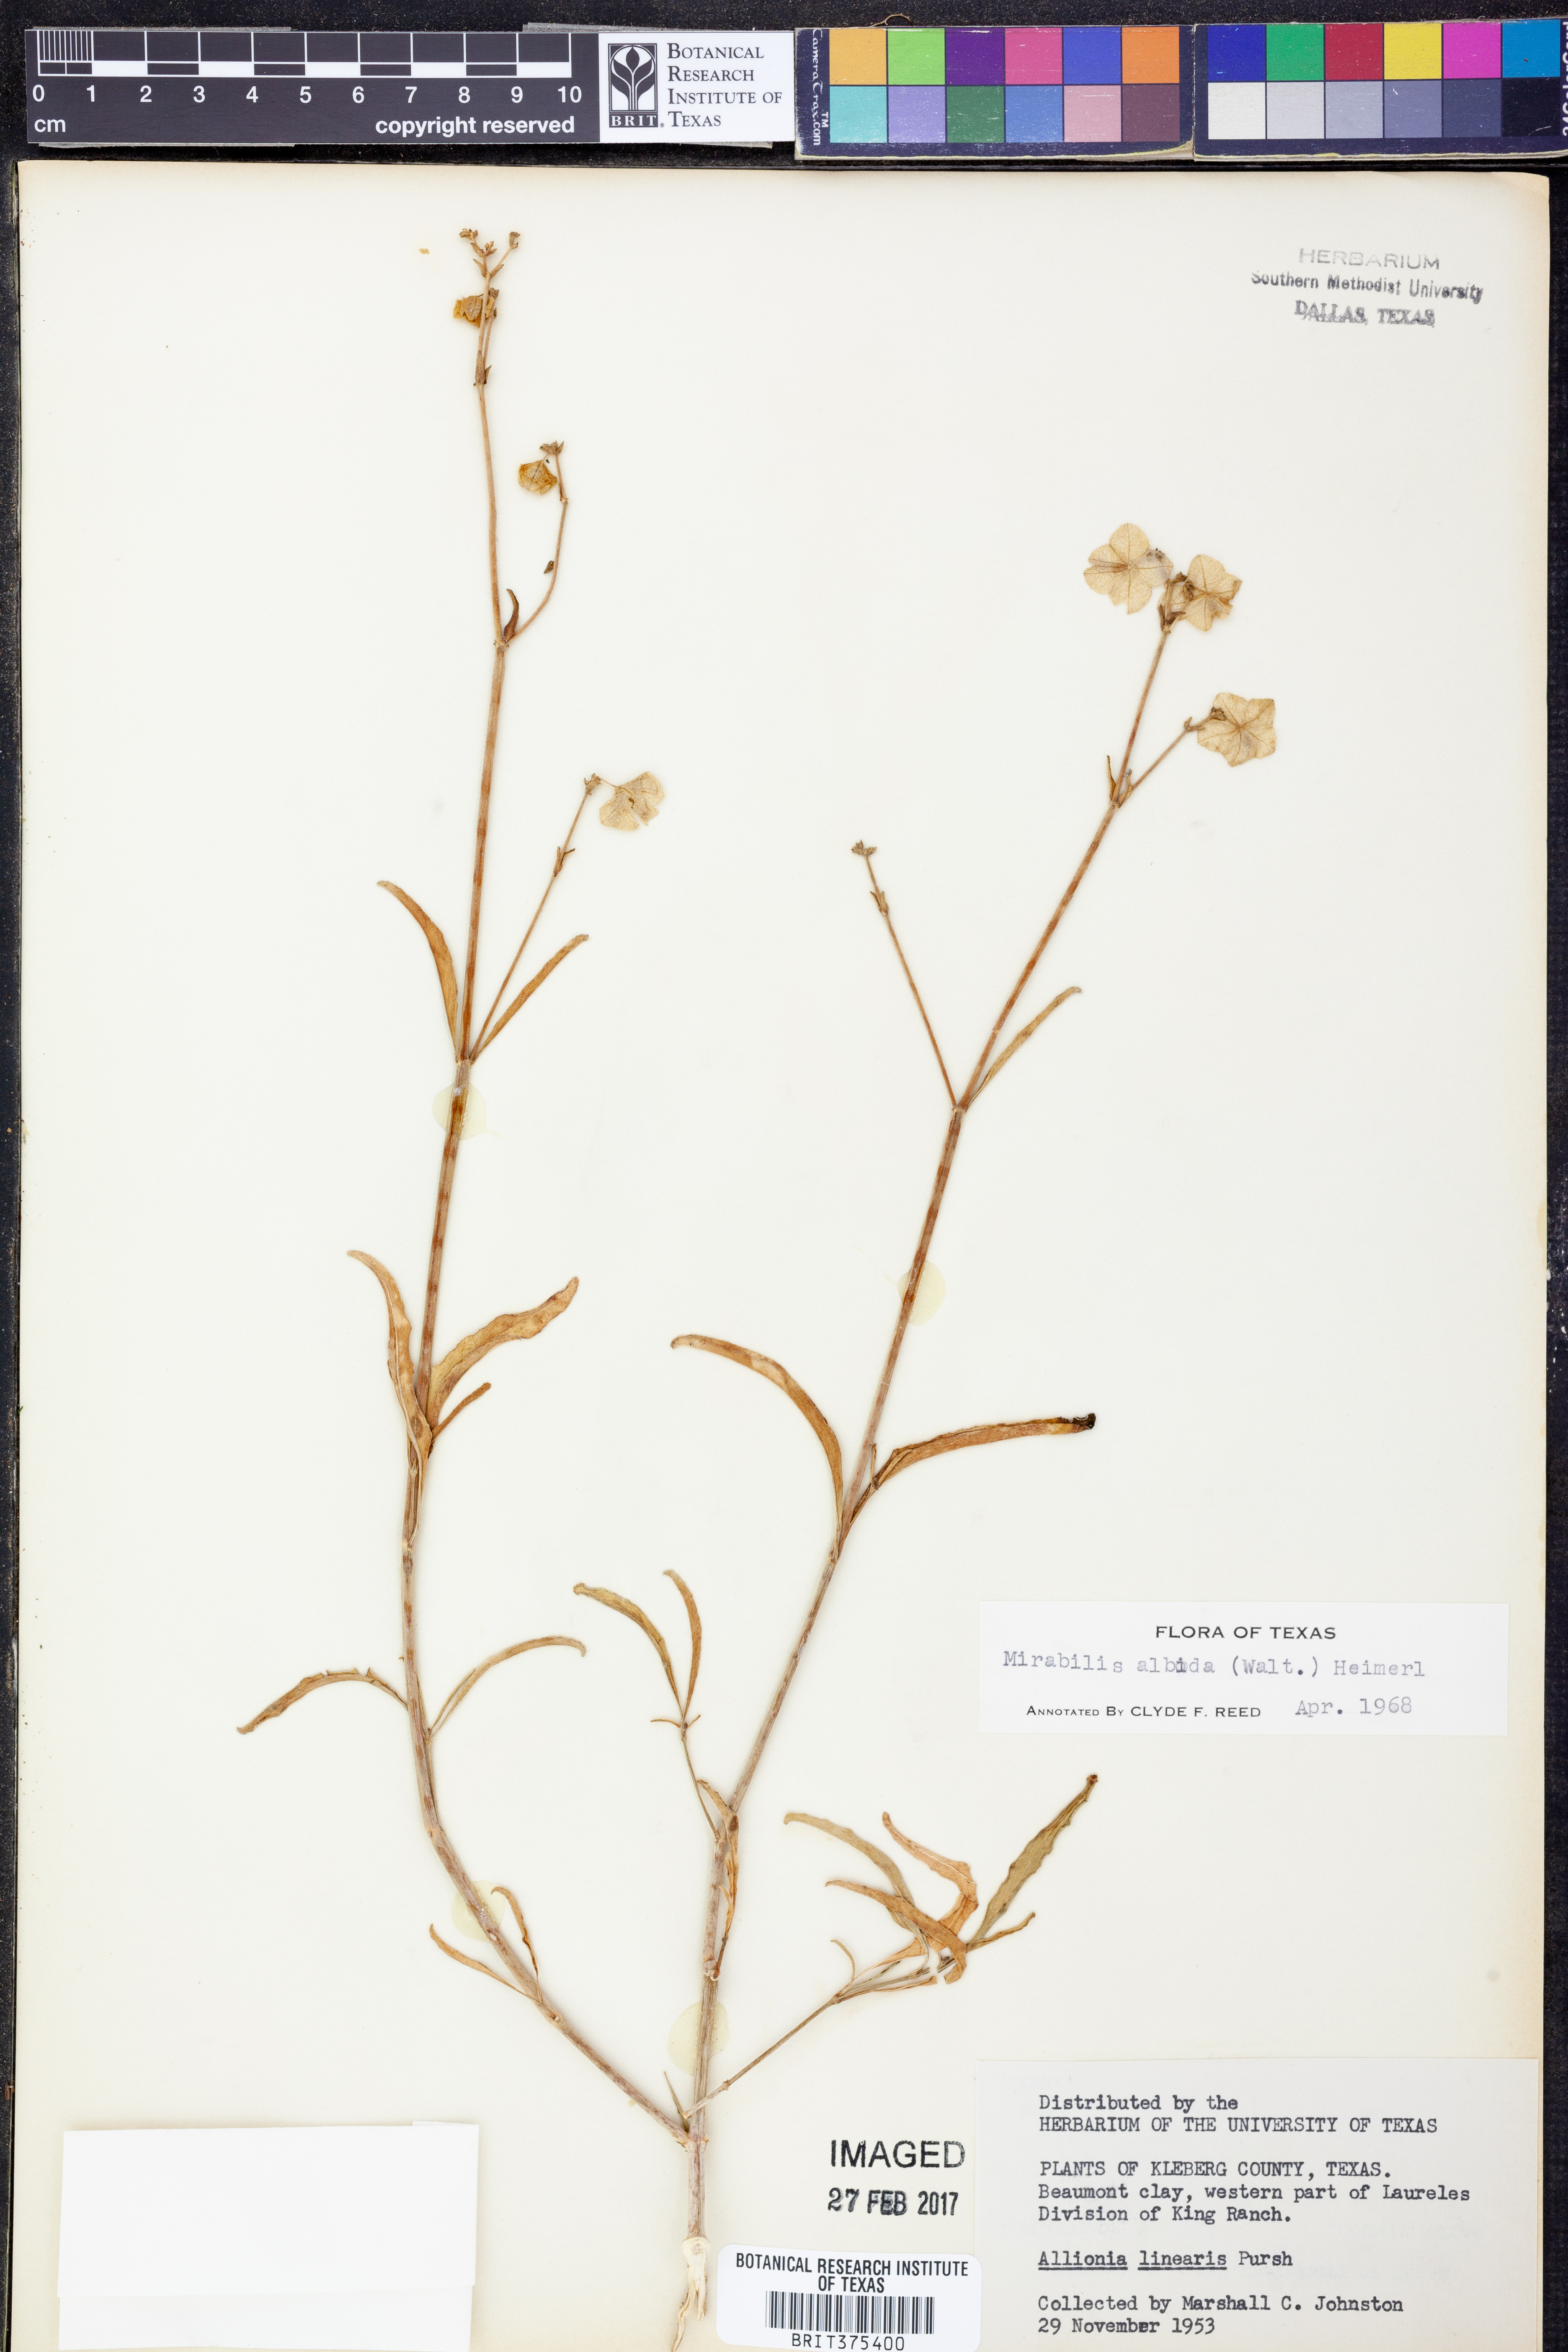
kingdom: Plantae
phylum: Tracheophyta
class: Magnoliopsida
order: Caryophyllales
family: Nyctaginaceae
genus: Mirabilis
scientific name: Mirabilis albida
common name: Hairy four-o'clock
